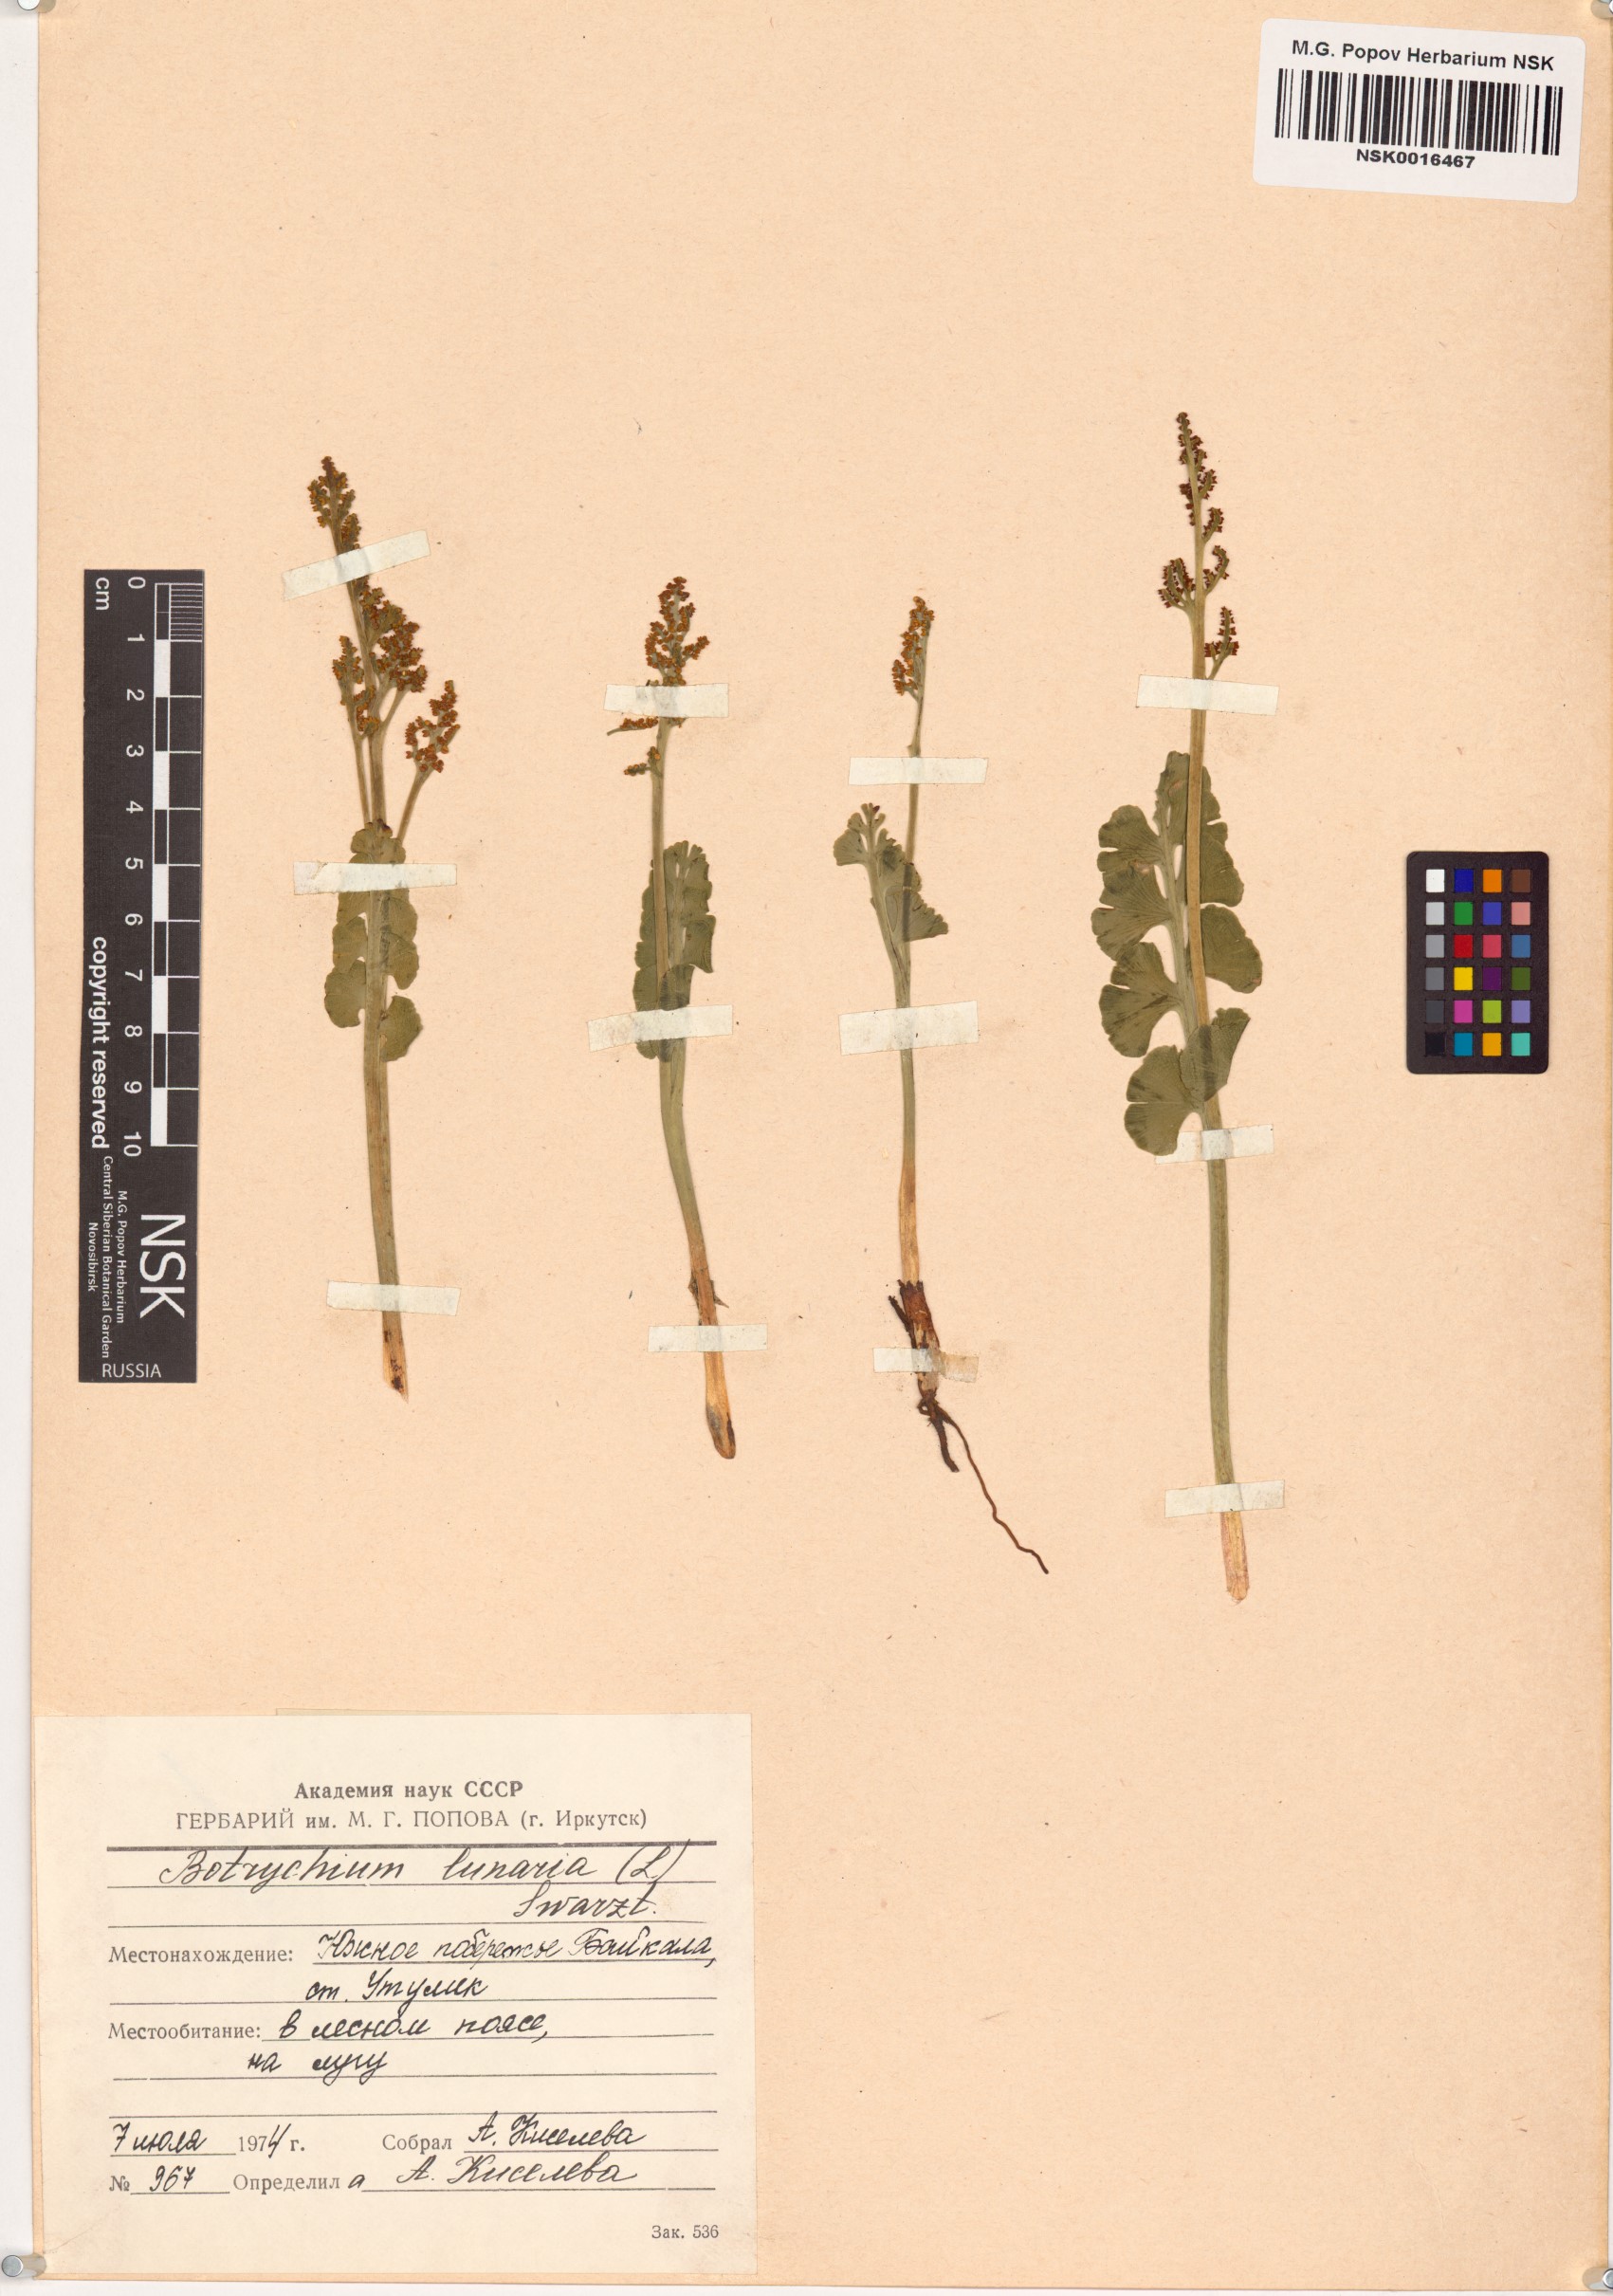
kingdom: Plantae
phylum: Tracheophyta
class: Polypodiopsida
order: Ophioglossales
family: Ophioglossaceae
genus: Botrychium
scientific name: Botrychium lunaria
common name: Moonwort
